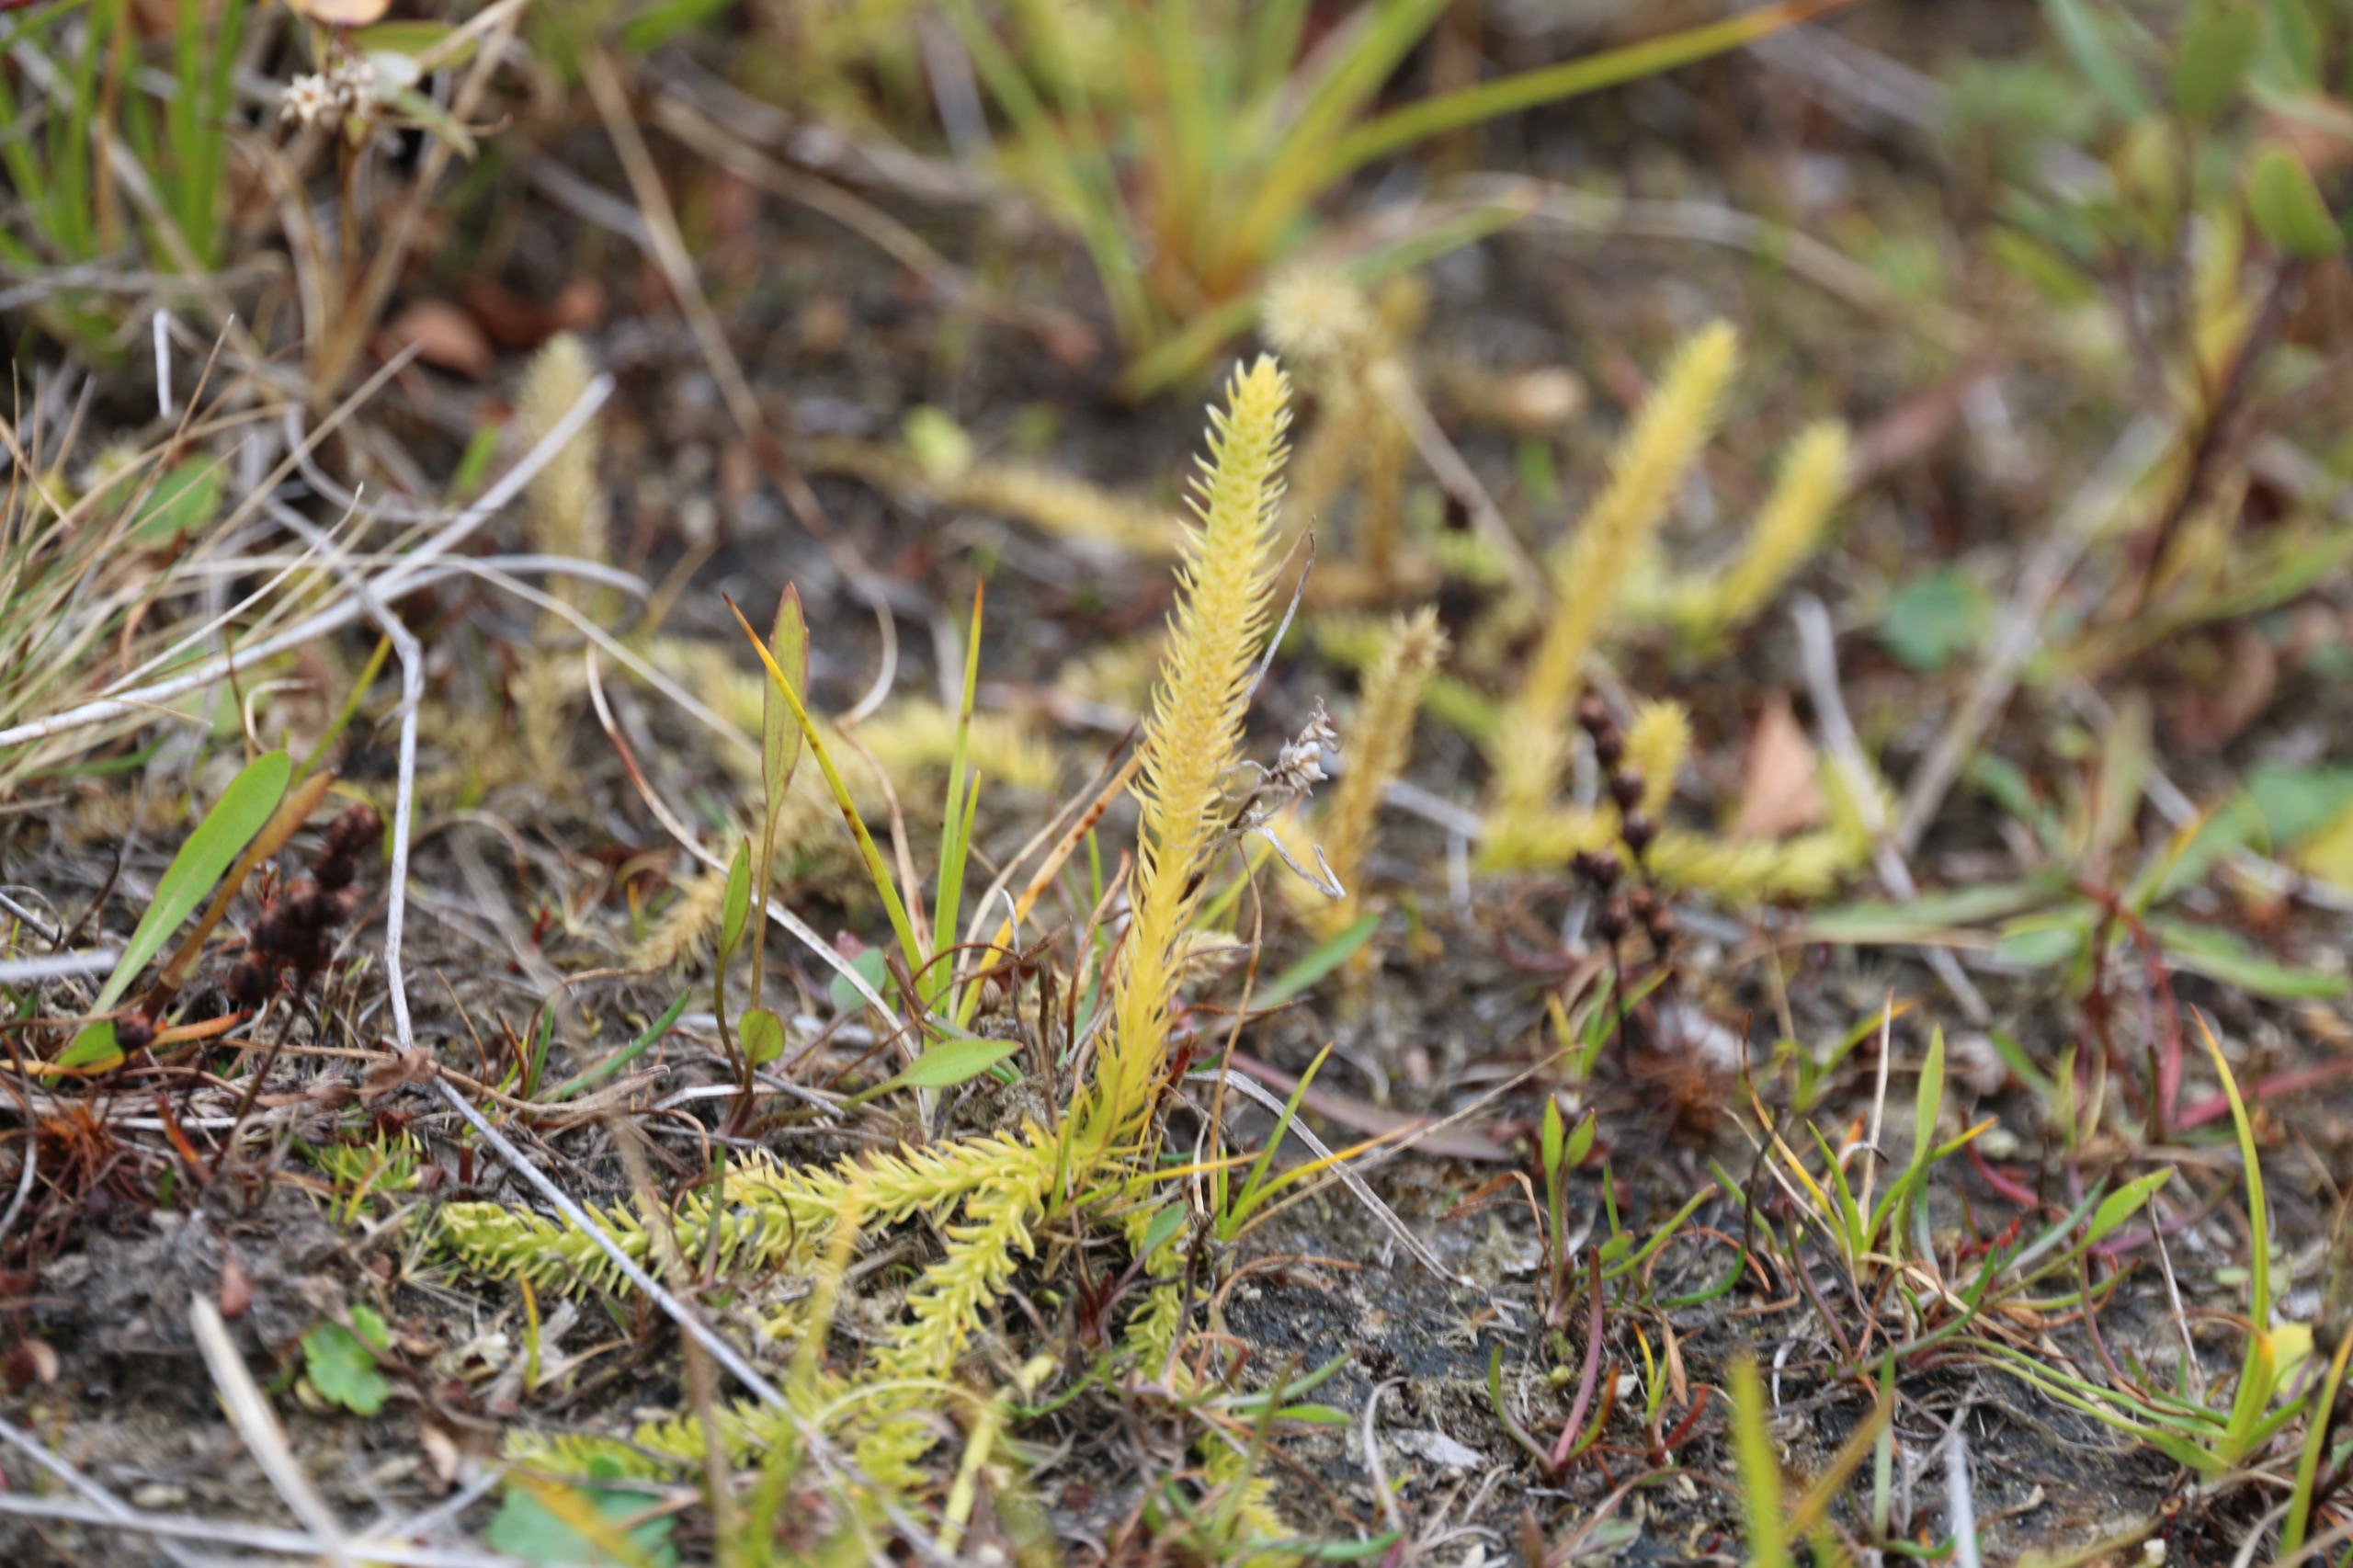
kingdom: Plantae
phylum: Tracheophyta
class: Lycopodiopsida
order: Lycopodiales
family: Lycopodiaceae
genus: Lycopodiella
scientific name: Lycopodiella inundata
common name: Liden ulvefod
